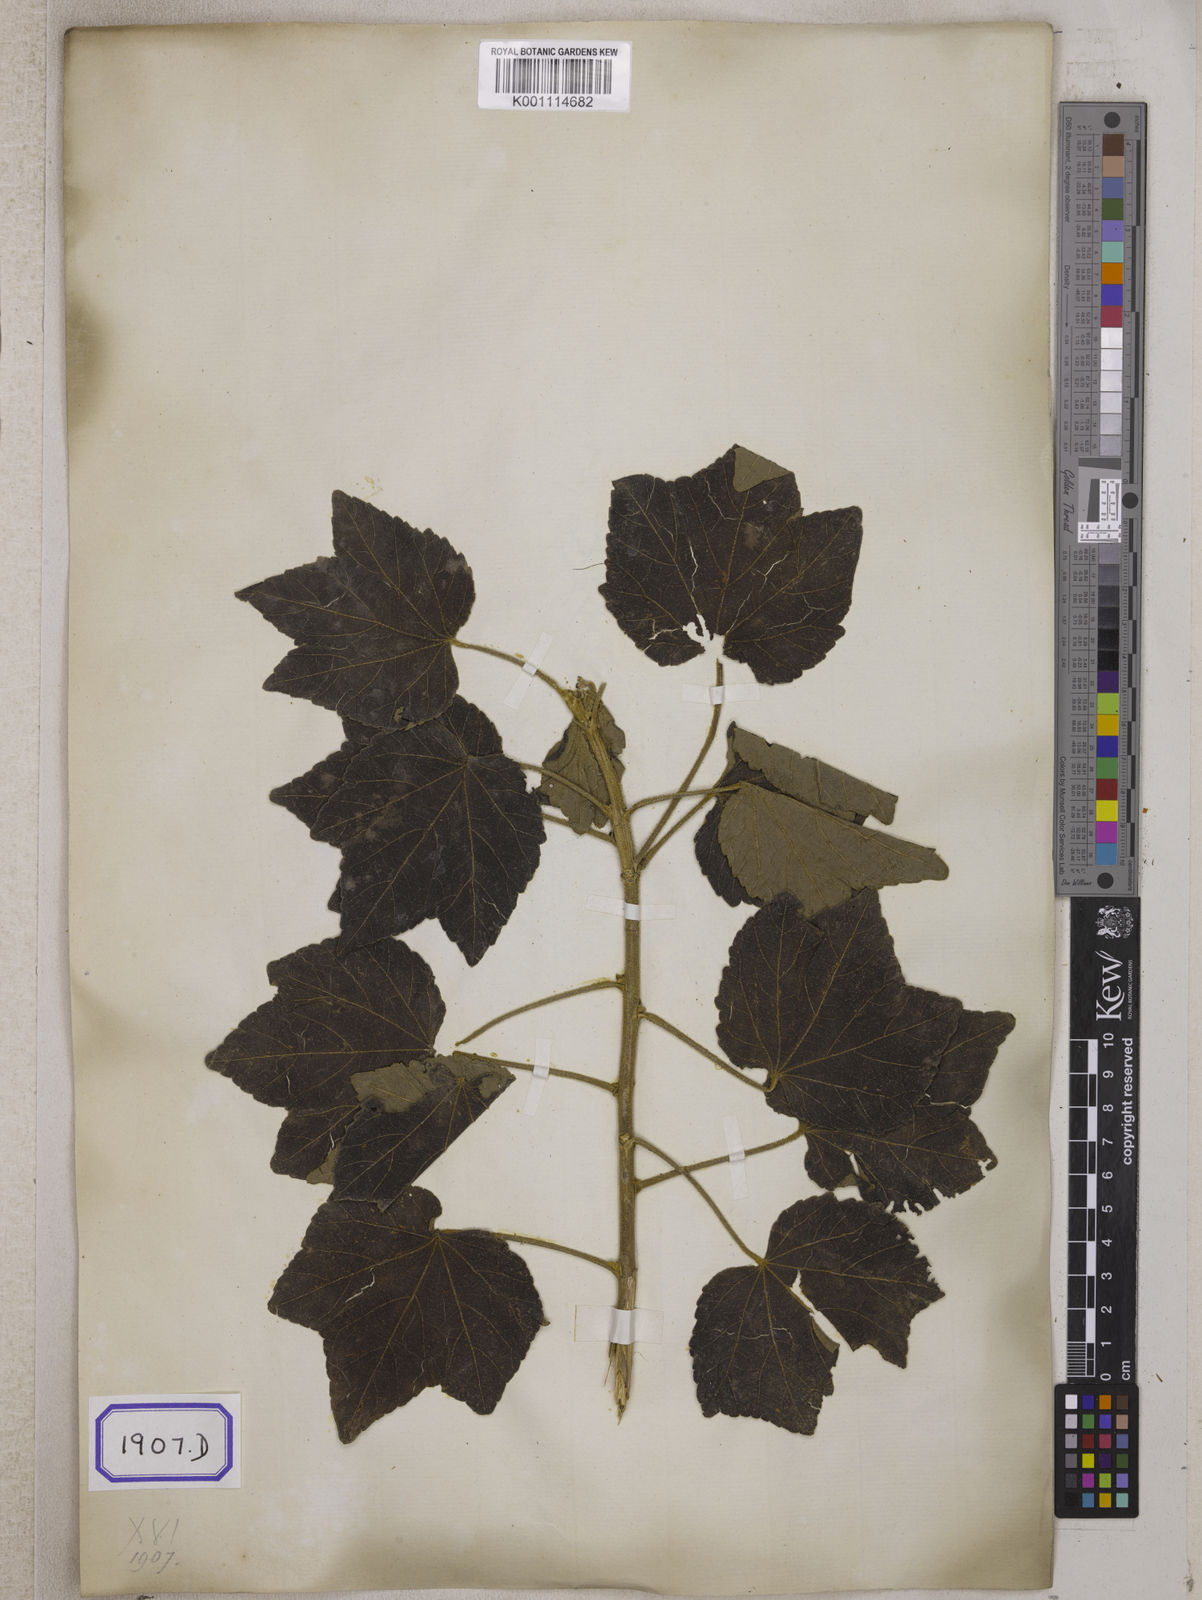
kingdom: Plantae
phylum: Tracheophyta
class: Magnoliopsida
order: Malvales
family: Malvaceae
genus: Hibiscus
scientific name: Hibiscus mutabilis
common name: Dixie rosemallow
